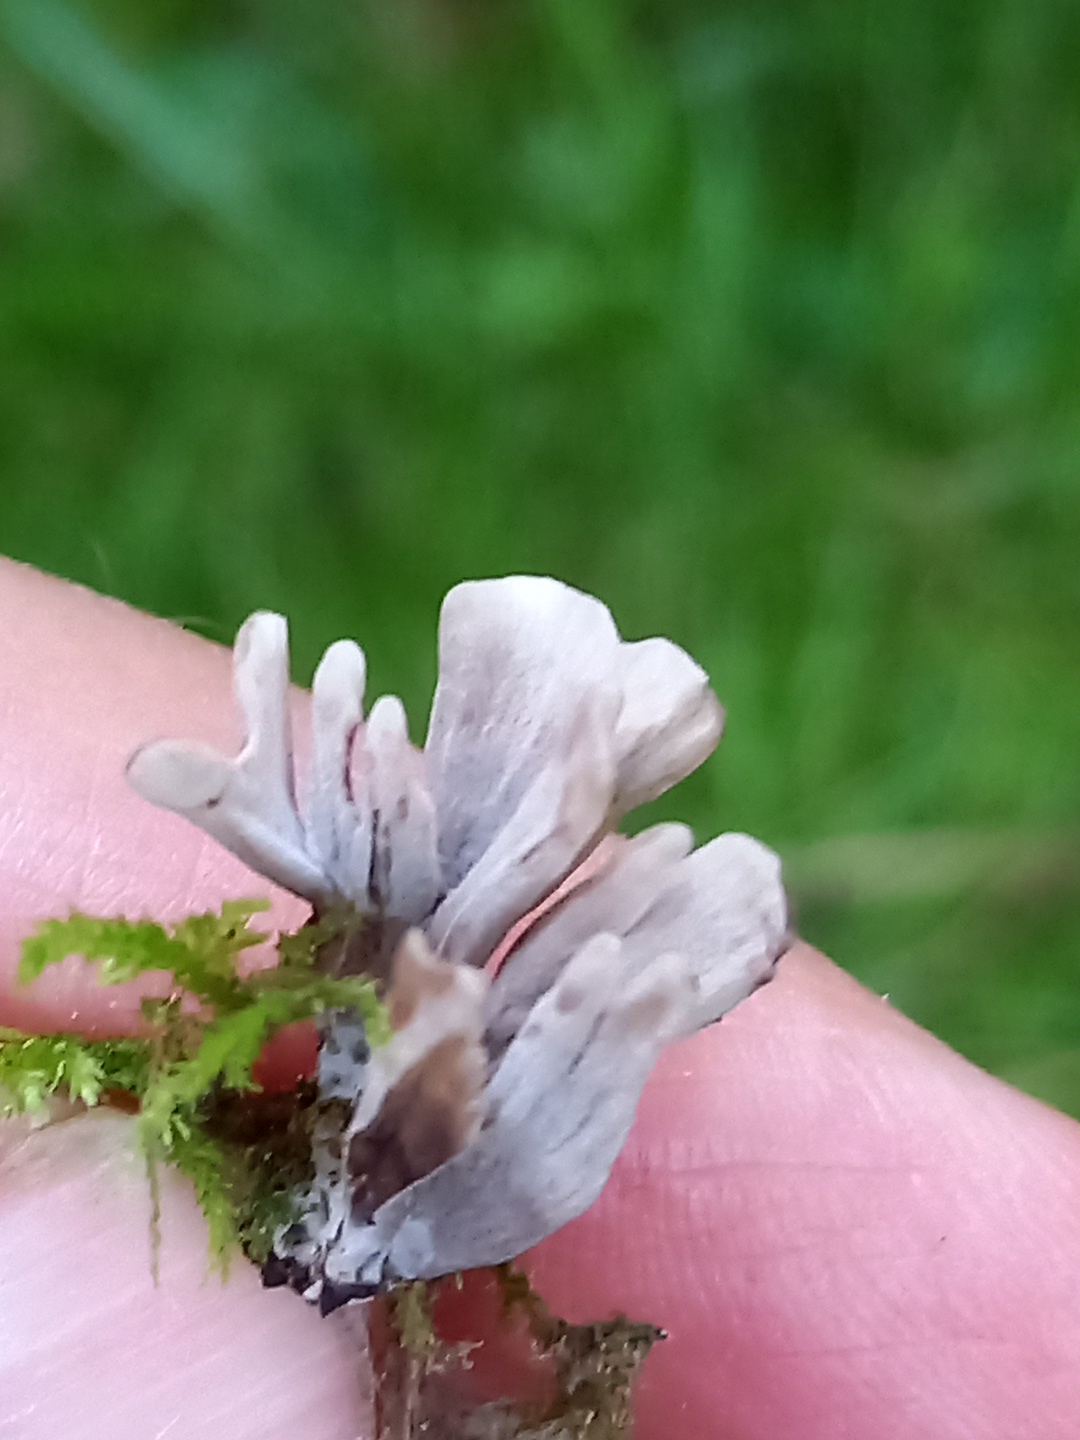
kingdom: Fungi
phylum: Basidiomycota
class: Agaricomycetes
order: Thelephorales
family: Thelephoraceae
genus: Thelephora
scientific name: Thelephora palmata
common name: grenet frynsesvamp
